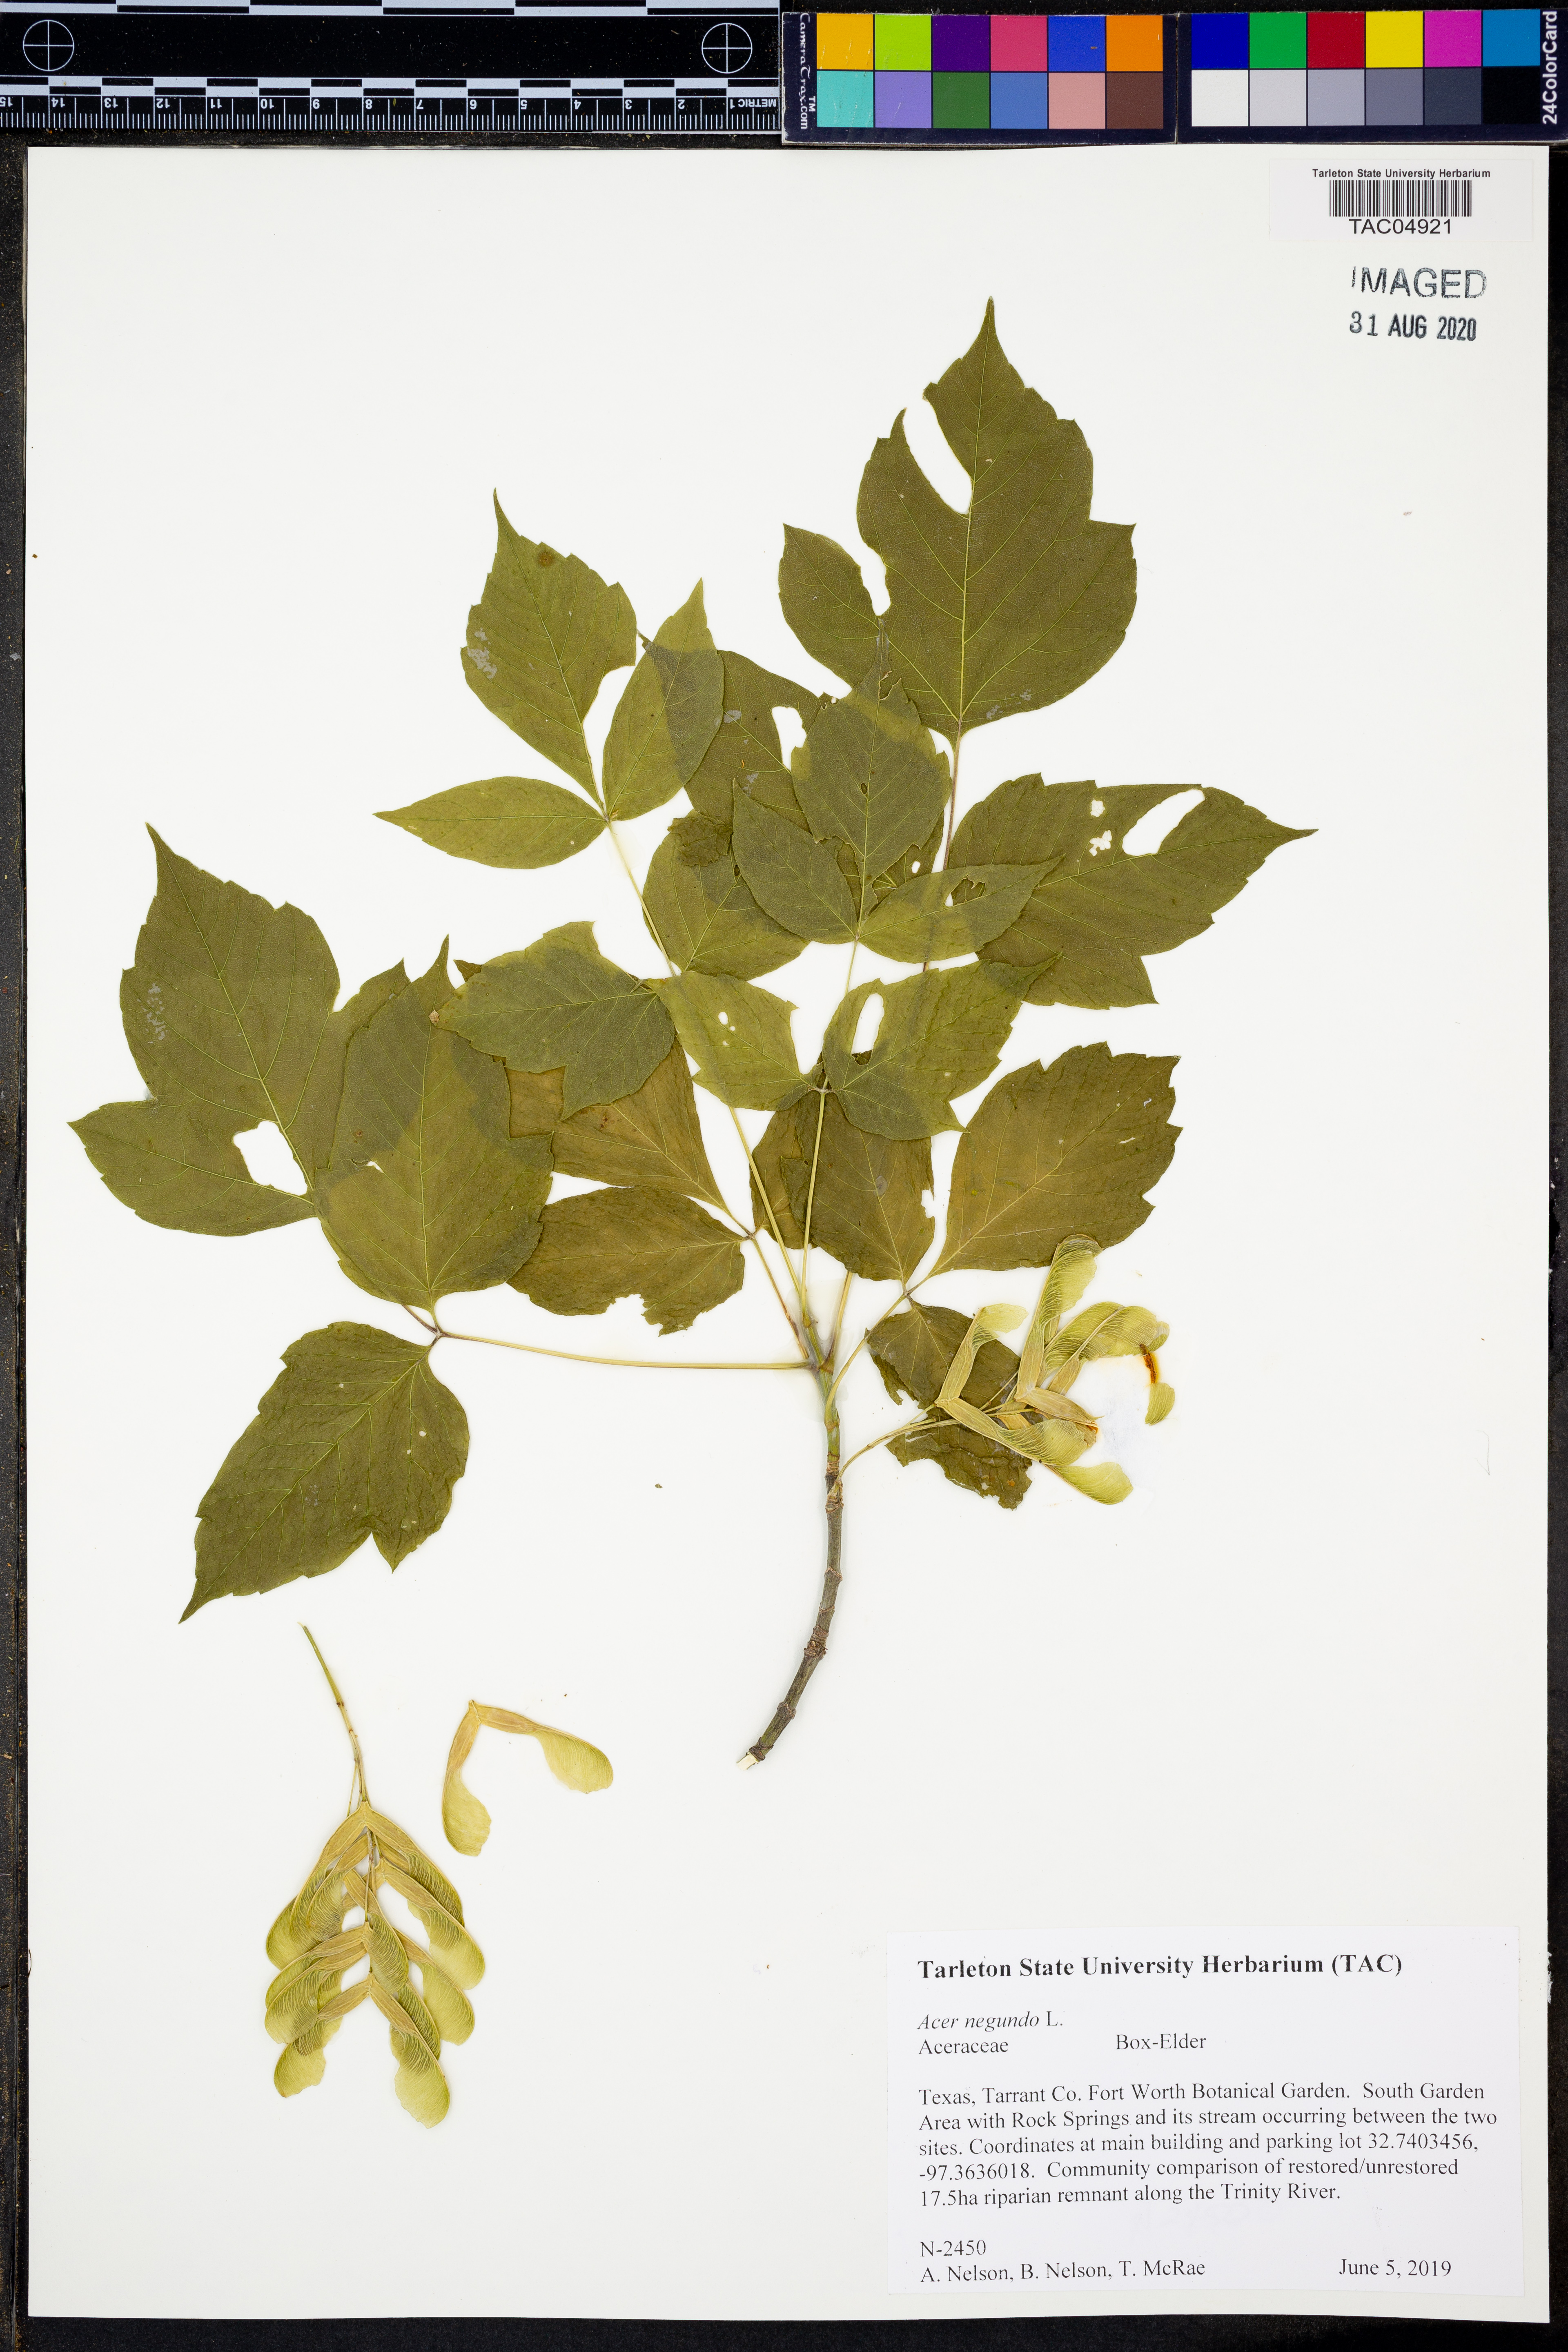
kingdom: Plantae
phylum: Tracheophyta
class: Magnoliopsida
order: Sapindales
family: Sapindaceae
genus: Acer
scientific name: Acer negundo
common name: Ashleaf maple
